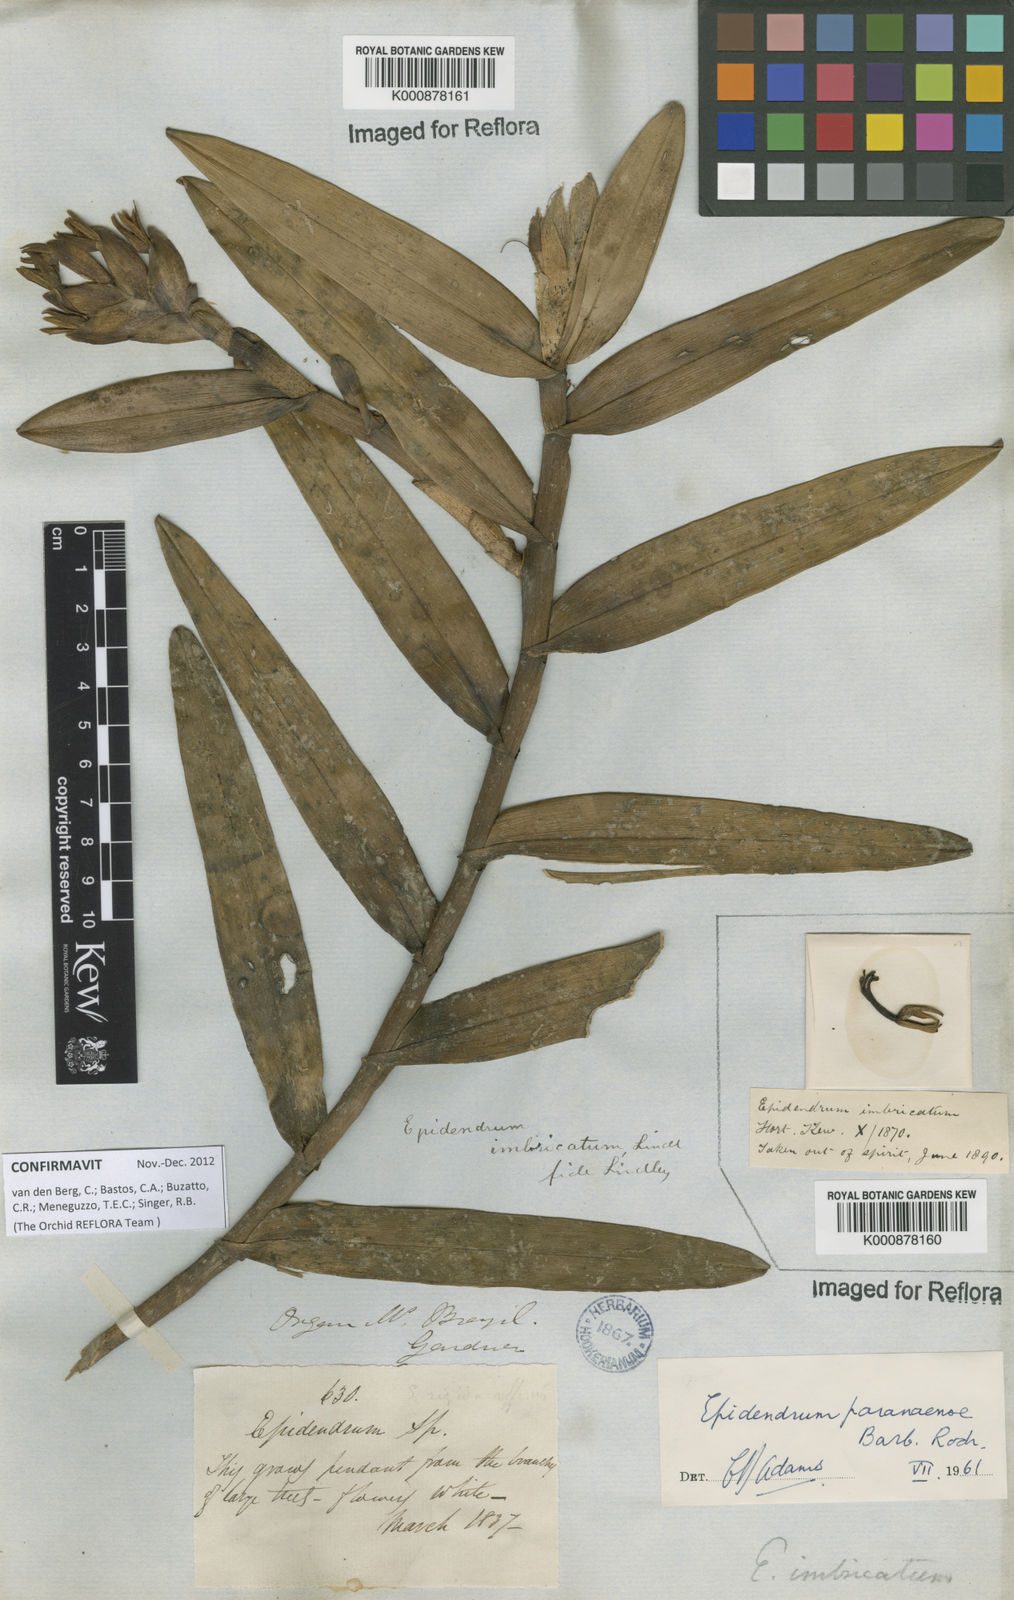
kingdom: Plantae
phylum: Tracheophyta
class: Liliopsida
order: Asparagales
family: Orchidaceae
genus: Epidendrum
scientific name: Epidendrum paranaense
